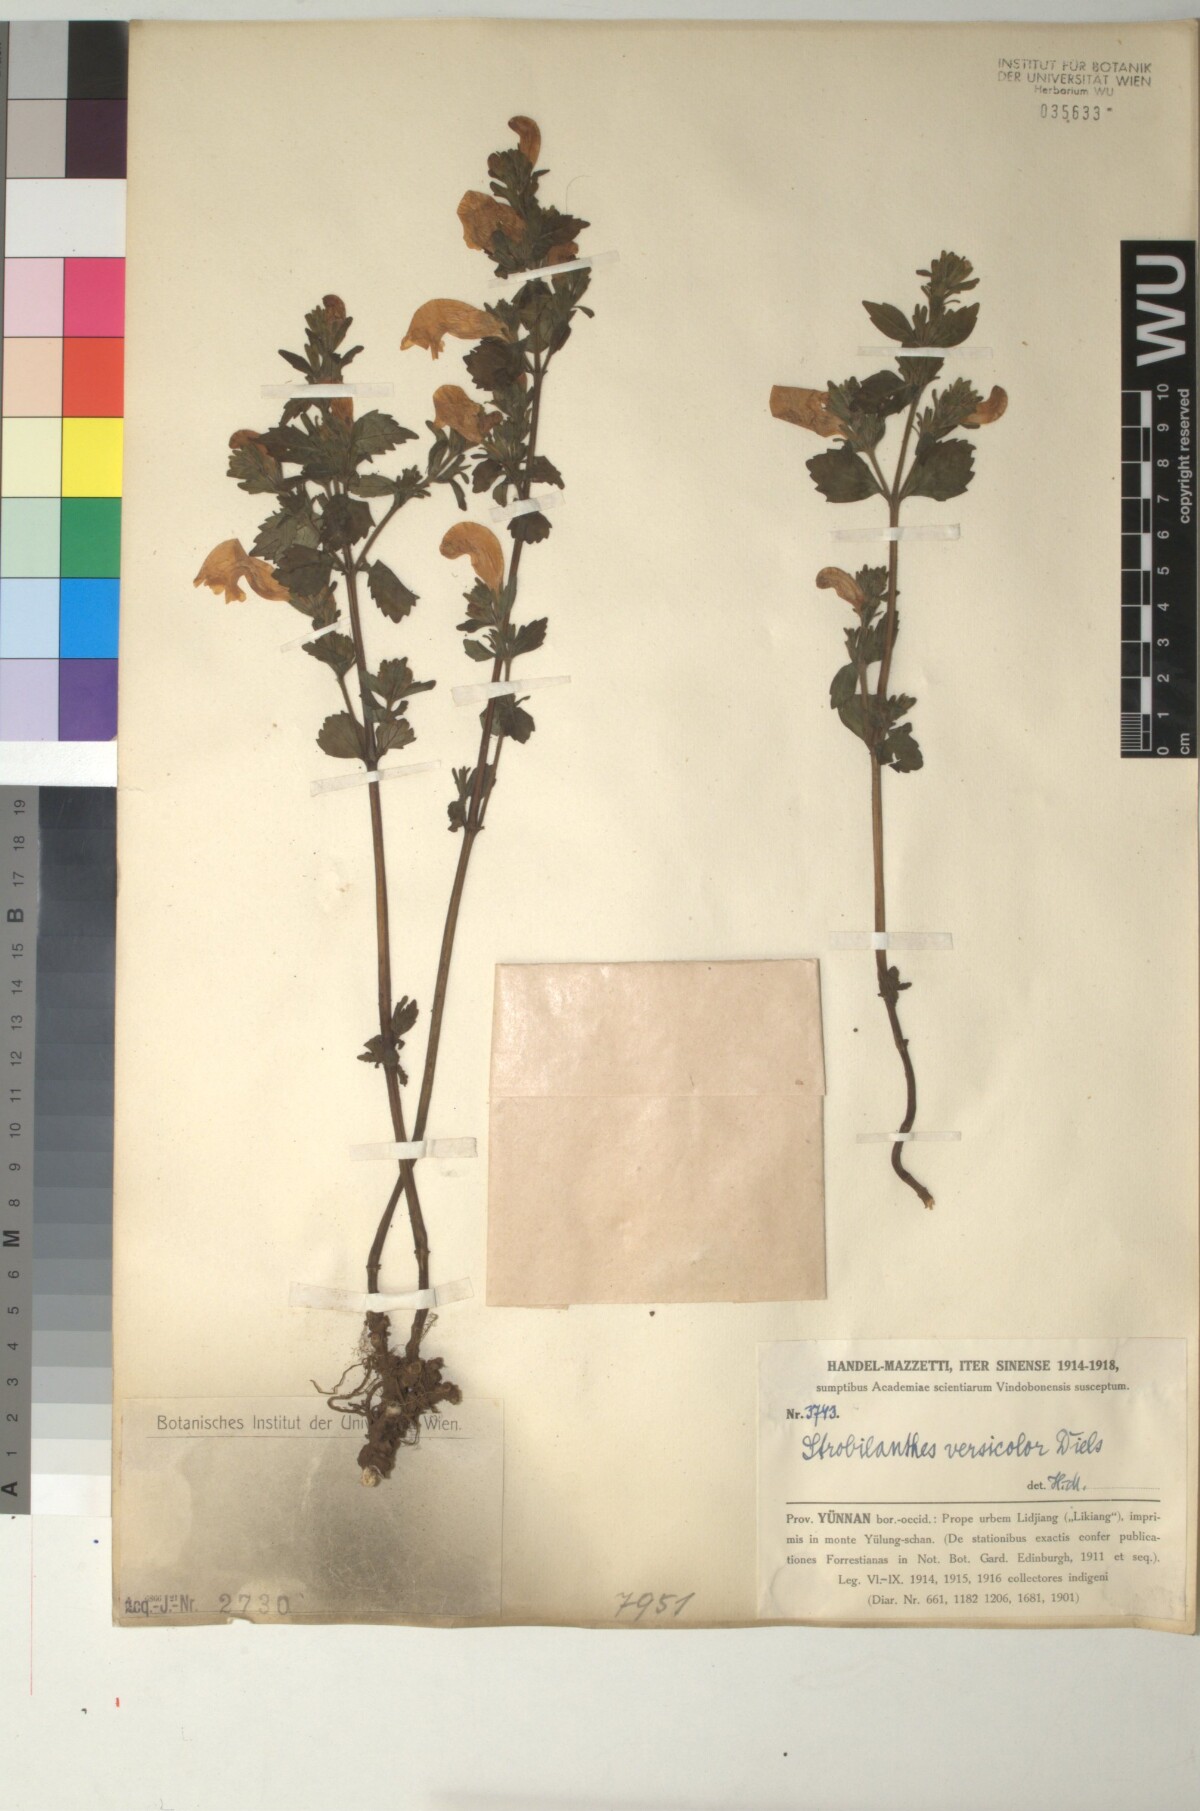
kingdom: Plantae
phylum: Tracheophyta
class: Magnoliopsida
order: Lamiales
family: Acanthaceae
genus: Strobilanthes
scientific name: Strobilanthes versicolor
